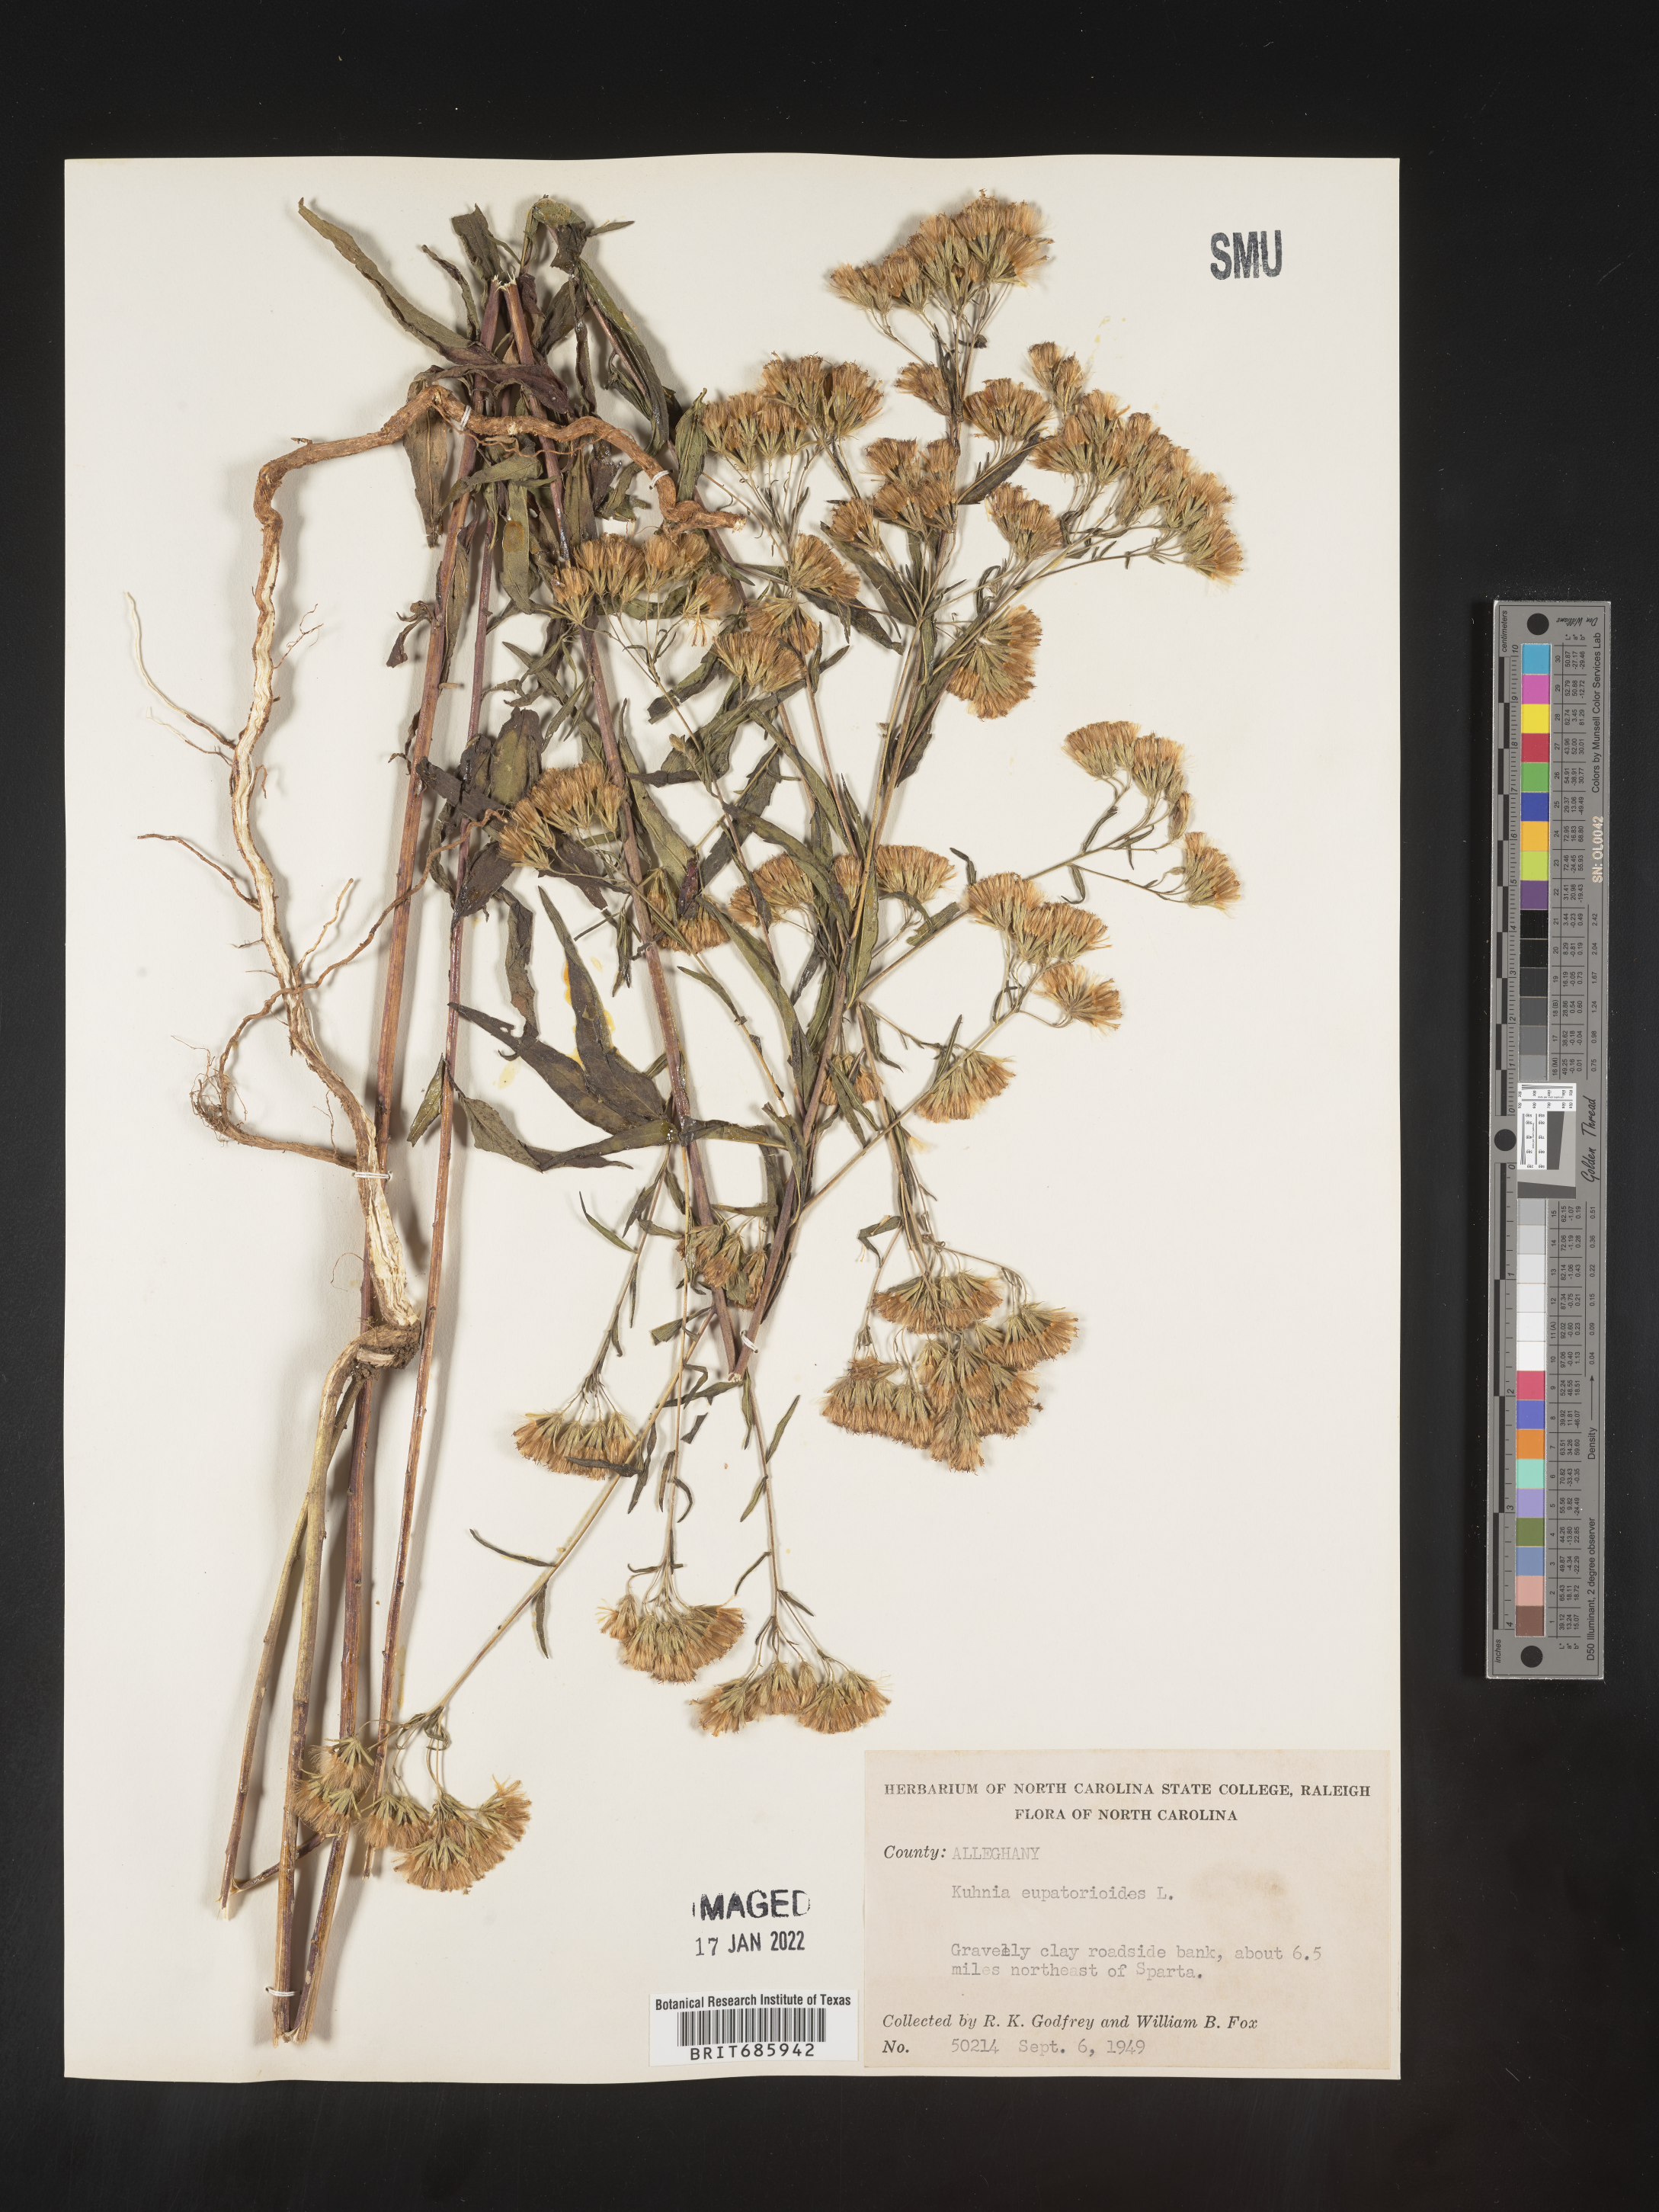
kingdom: Plantae
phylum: Tracheophyta
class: Magnoliopsida
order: Asterales
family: Asteraceae
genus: Brickellia
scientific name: Brickellia eupatorioides
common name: False boneset
